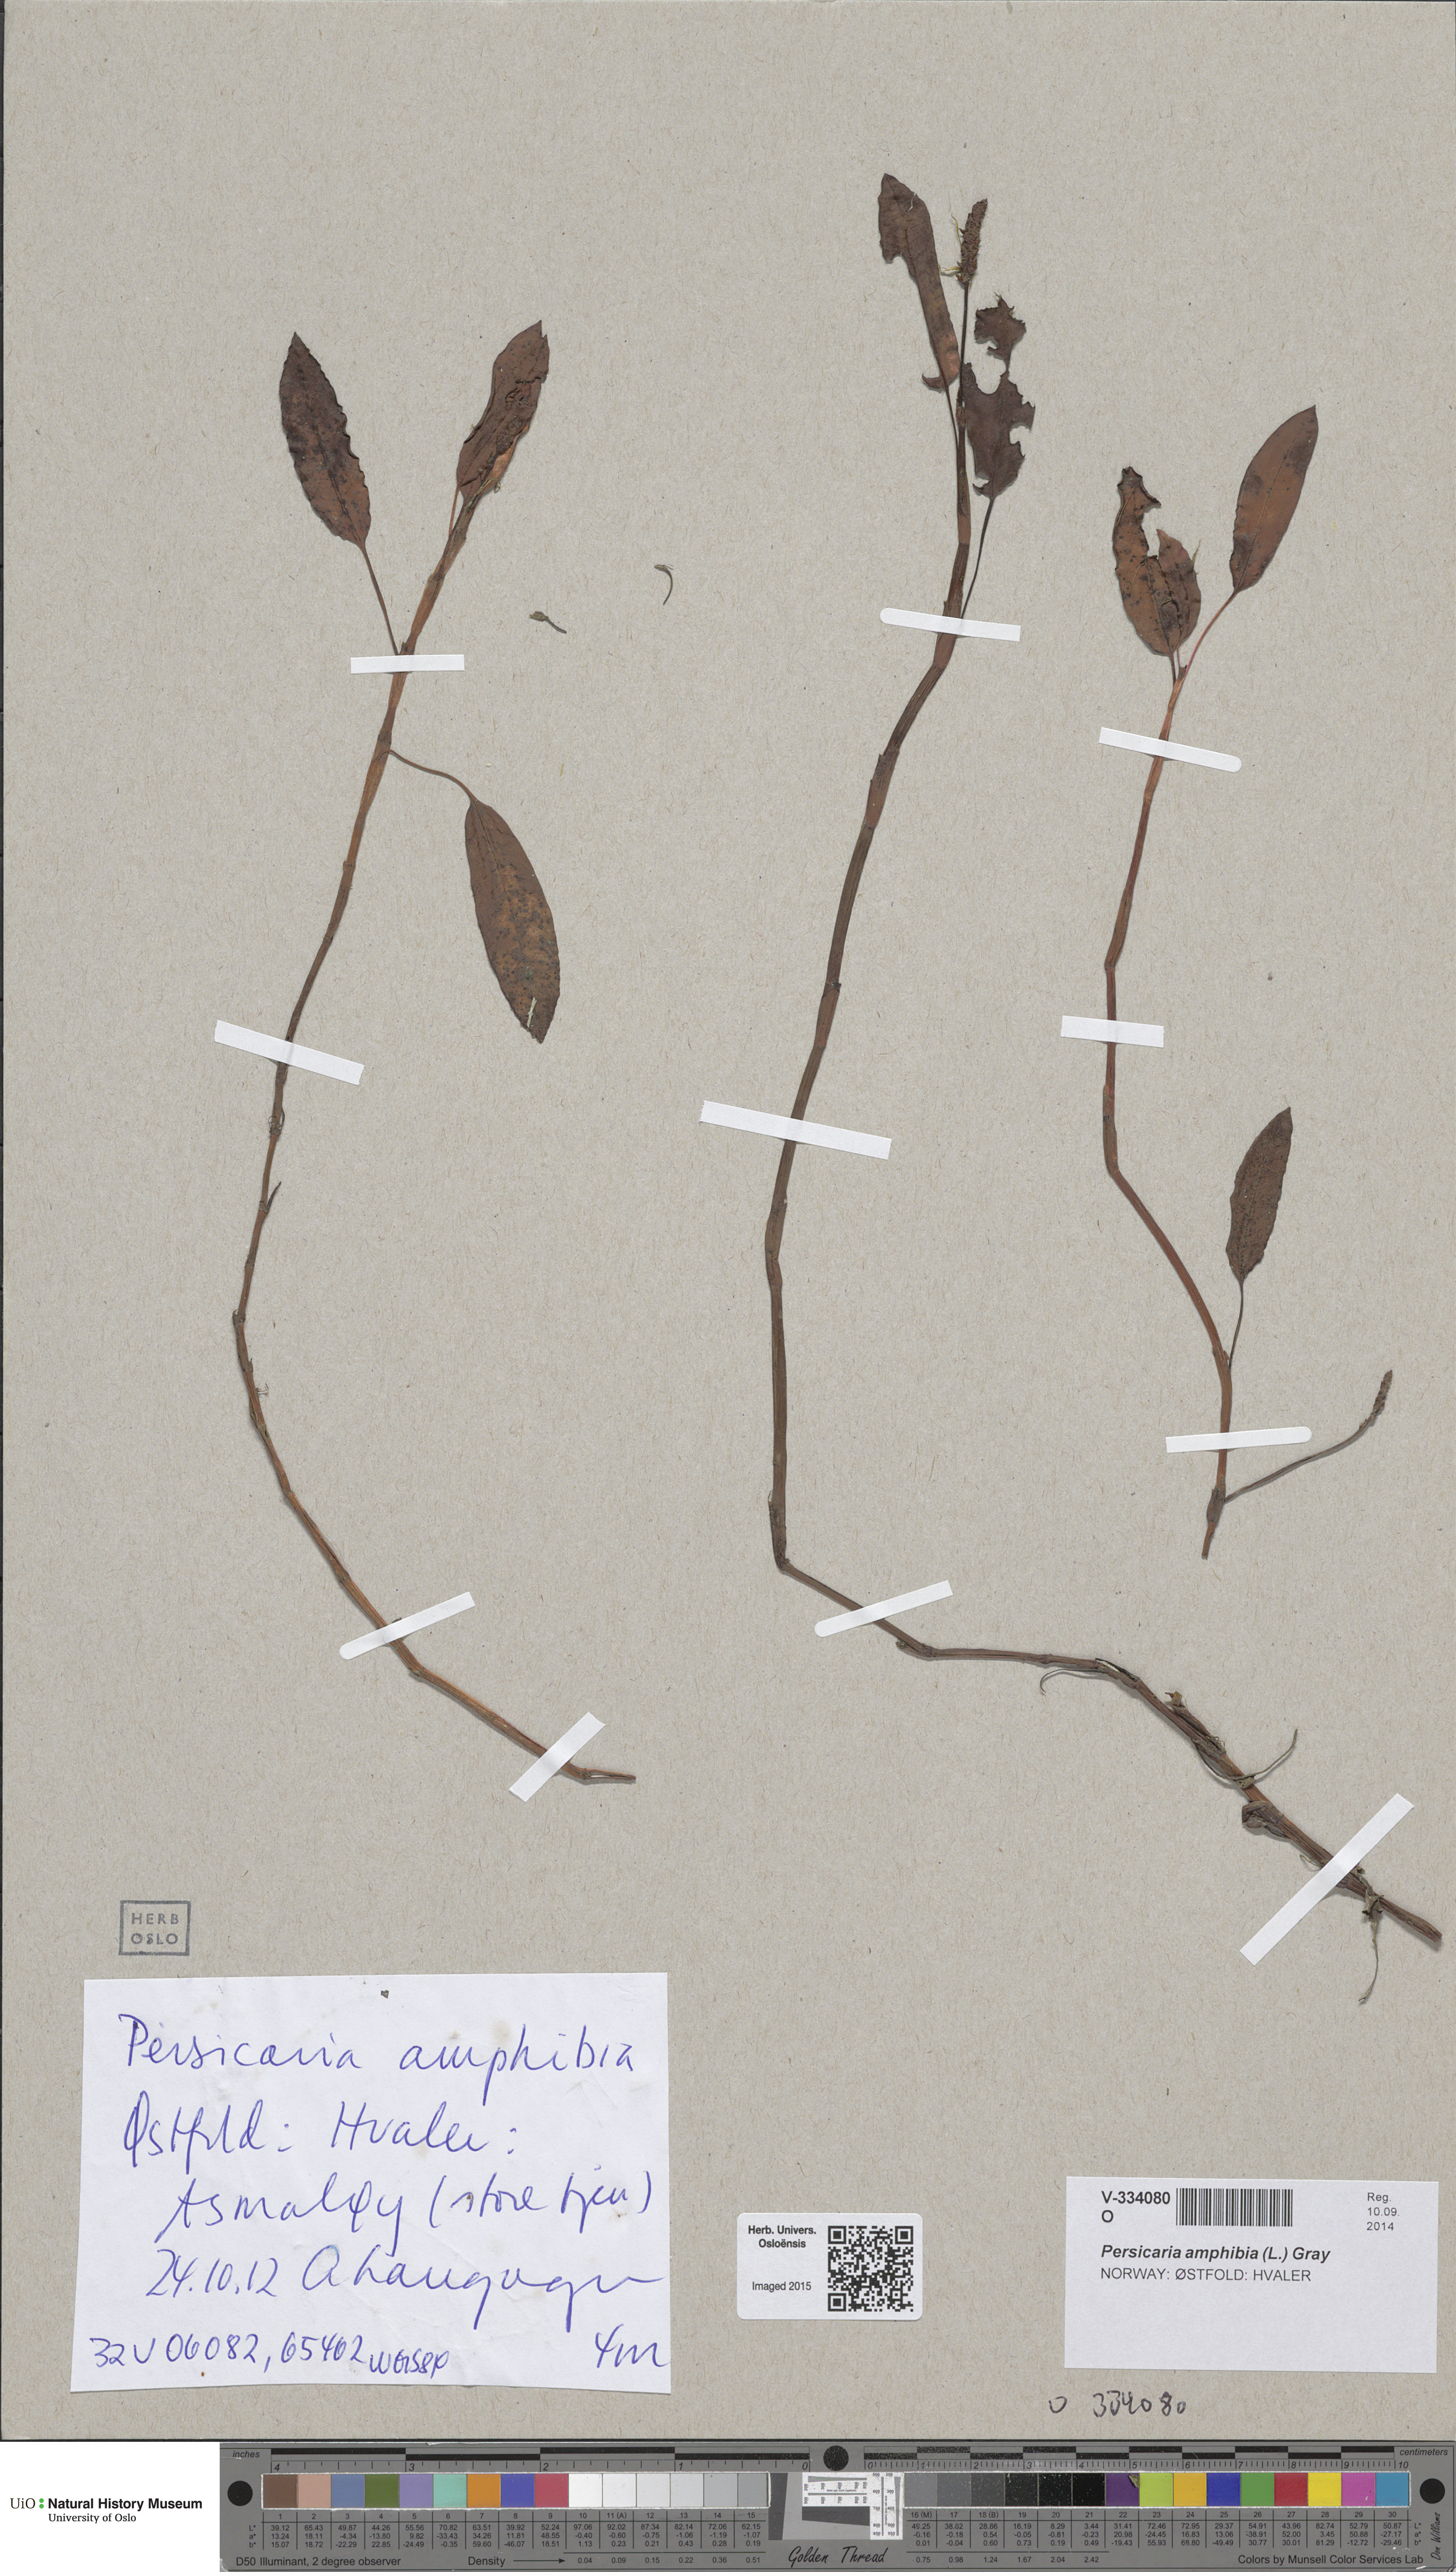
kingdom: Plantae
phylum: Tracheophyta
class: Magnoliopsida
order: Caryophyllales
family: Polygonaceae
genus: Persicaria
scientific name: Persicaria amphibia
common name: Amphibious bistort
